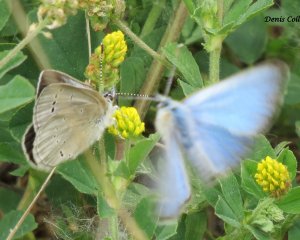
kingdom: Animalia
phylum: Arthropoda
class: Insecta
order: Lepidoptera
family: Lycaenidae
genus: Glaucopsyche
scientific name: Glaucopsyche lygdamus
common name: Silvery Blue
